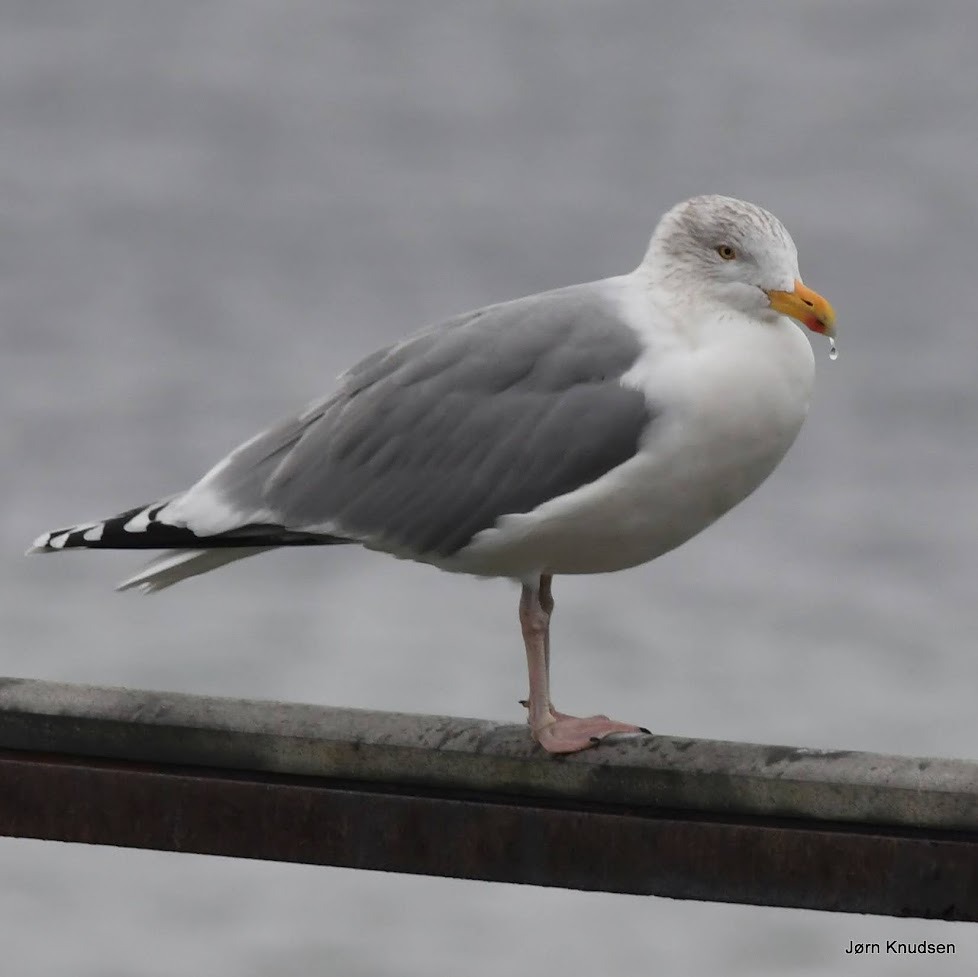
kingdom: Animalia
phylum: Chordata
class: Aves
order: Charadriiformes
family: Laridae
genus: Larus
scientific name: Larus argentatus
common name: Sølvmåge
